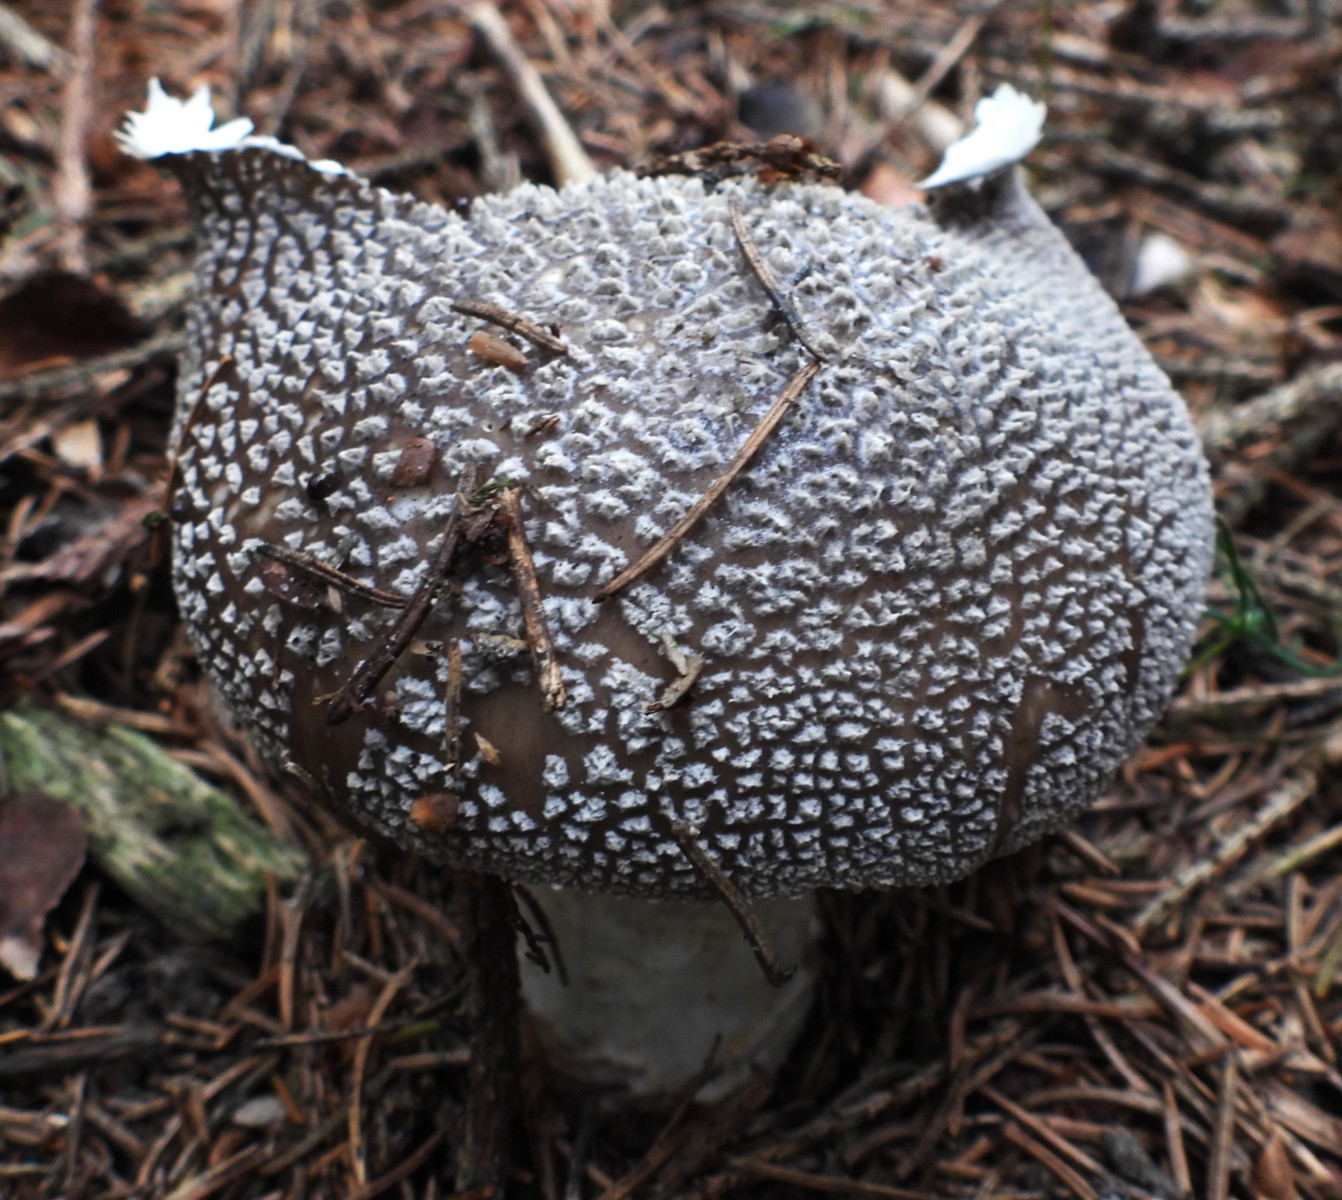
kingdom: Fungi
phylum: Basidiomycota
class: Agaricomycetes
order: Agaricales
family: Amanitaceae
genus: Amanita
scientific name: Amanita
